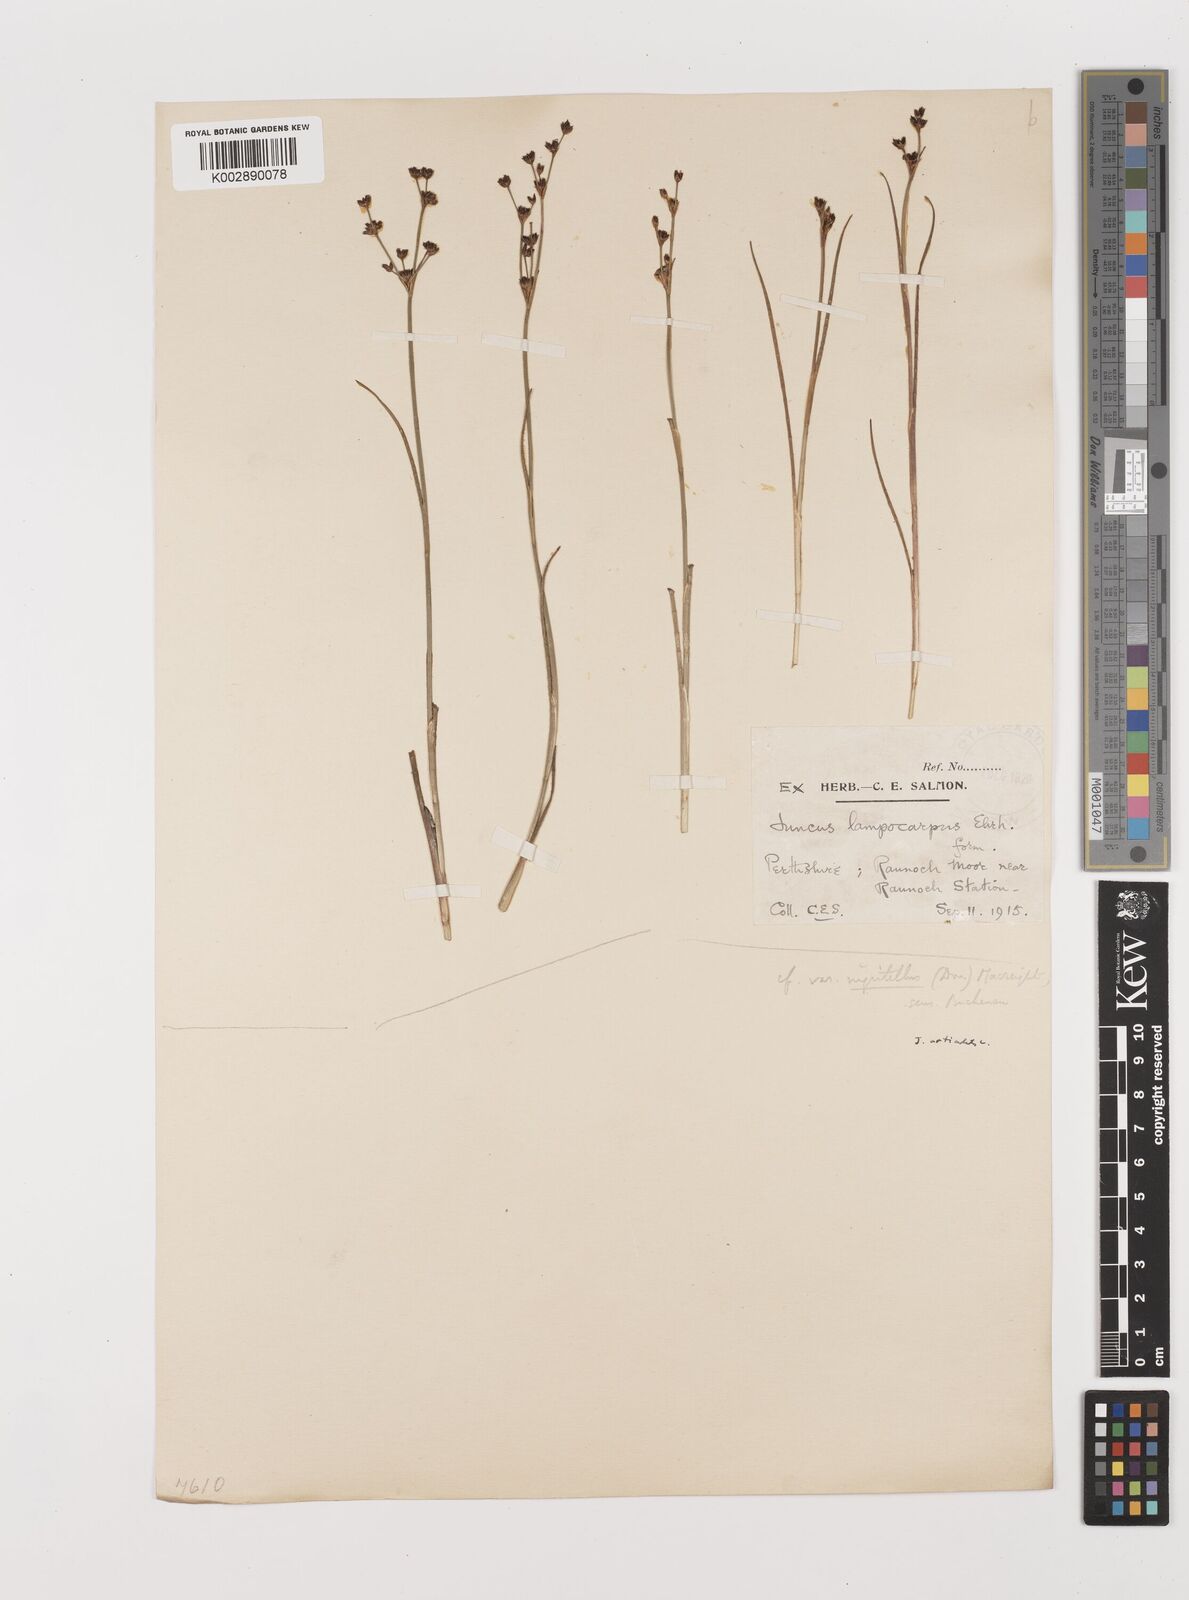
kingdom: Plantae
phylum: Tracheophyta
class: Liliopsida
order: Poales
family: Juncaceae
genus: Juncus
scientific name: Juncus articulatus
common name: Jointed rush
